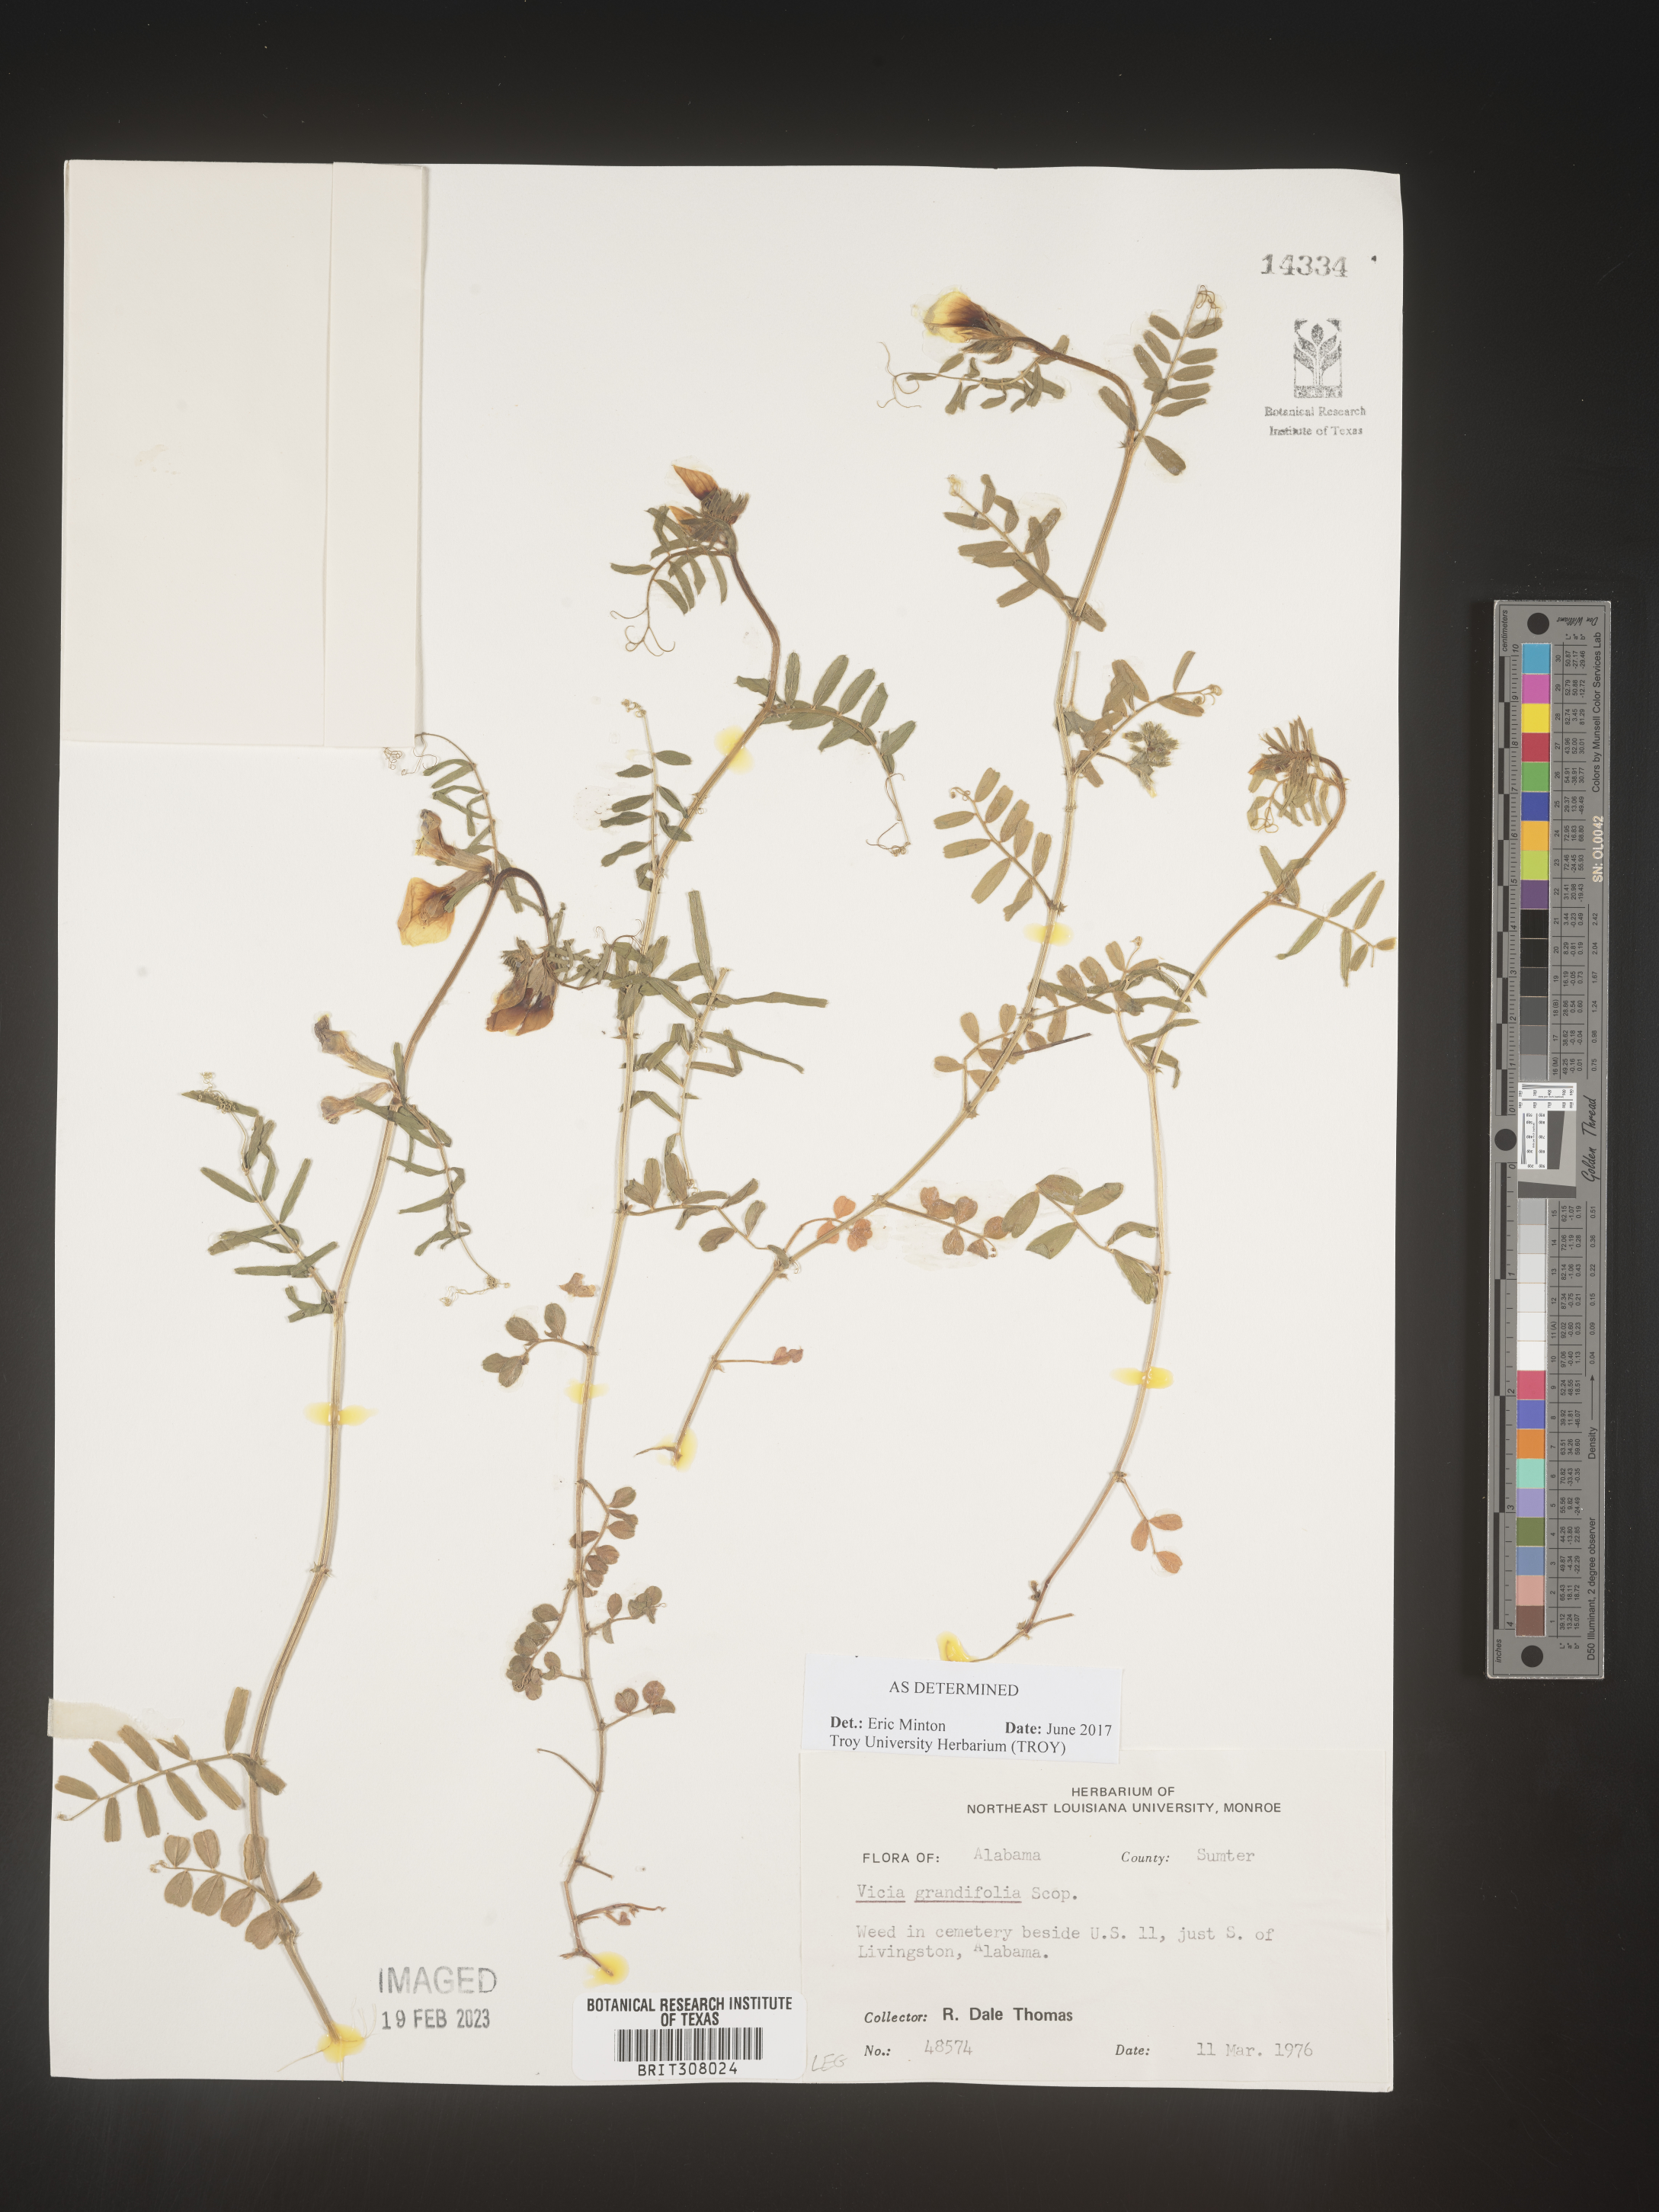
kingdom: Plantae
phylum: Tracheophyta
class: Magnoliopsida
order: Fabales
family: Fabaceae
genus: Vicia
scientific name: Vicia grandiflora
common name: Large yellow vetch
